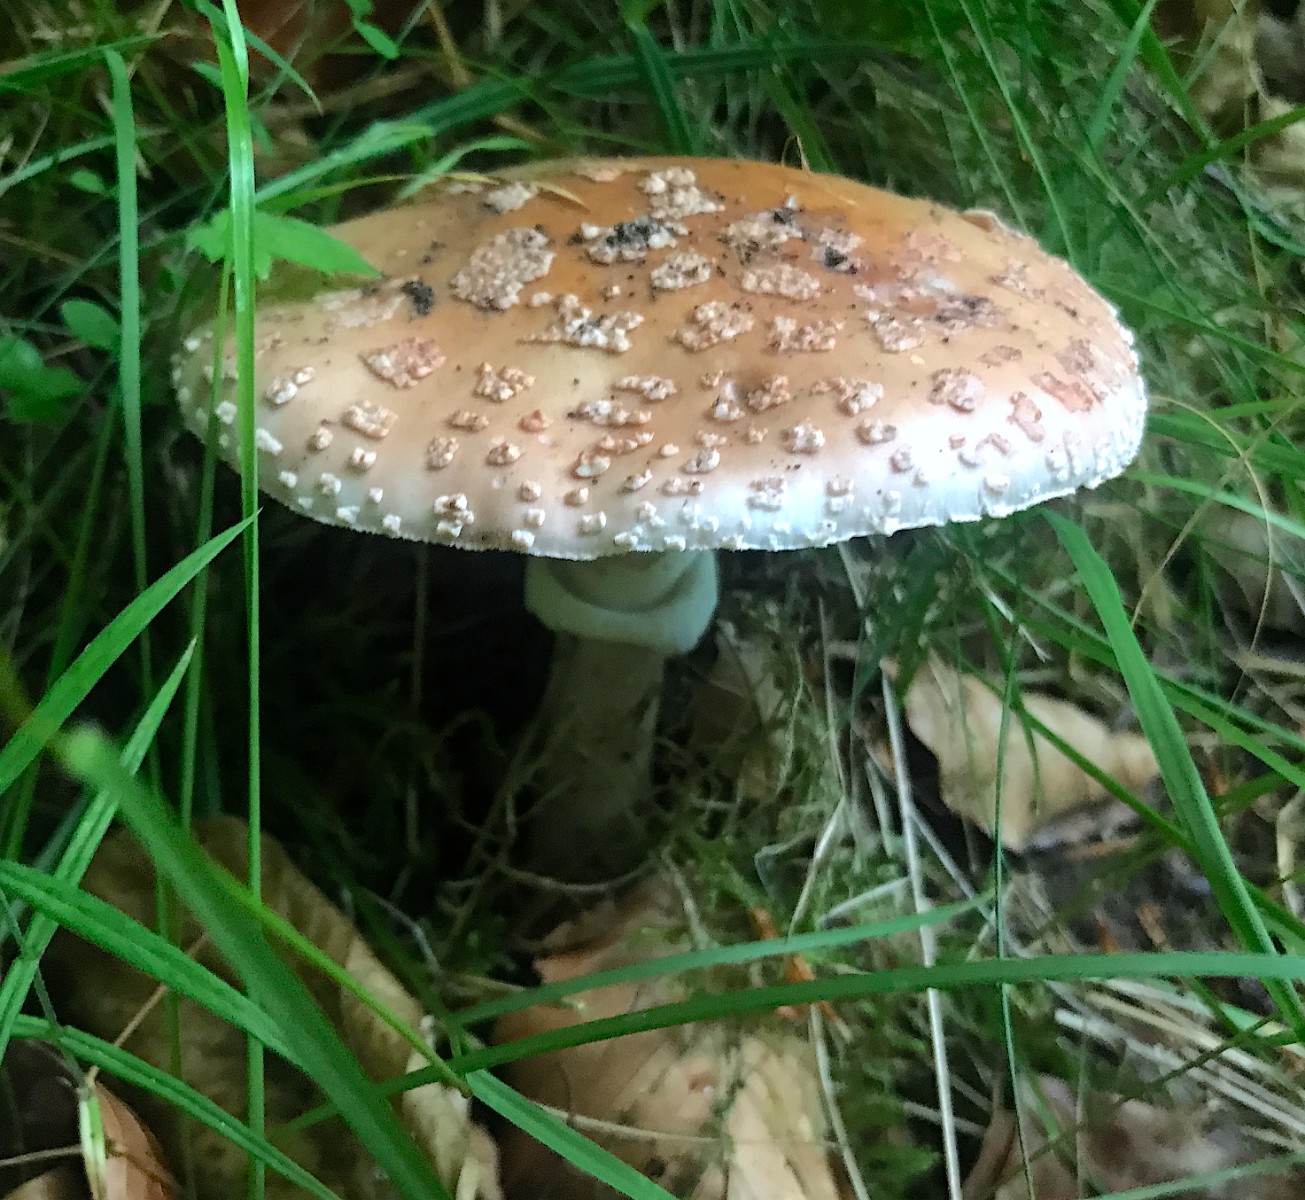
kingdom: Fungi
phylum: Basidiomycota
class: Agaricomycetes
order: Agaricales
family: Amanitaceae
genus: Amanita
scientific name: Amanita rubescens
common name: rødmende fluesvamp
